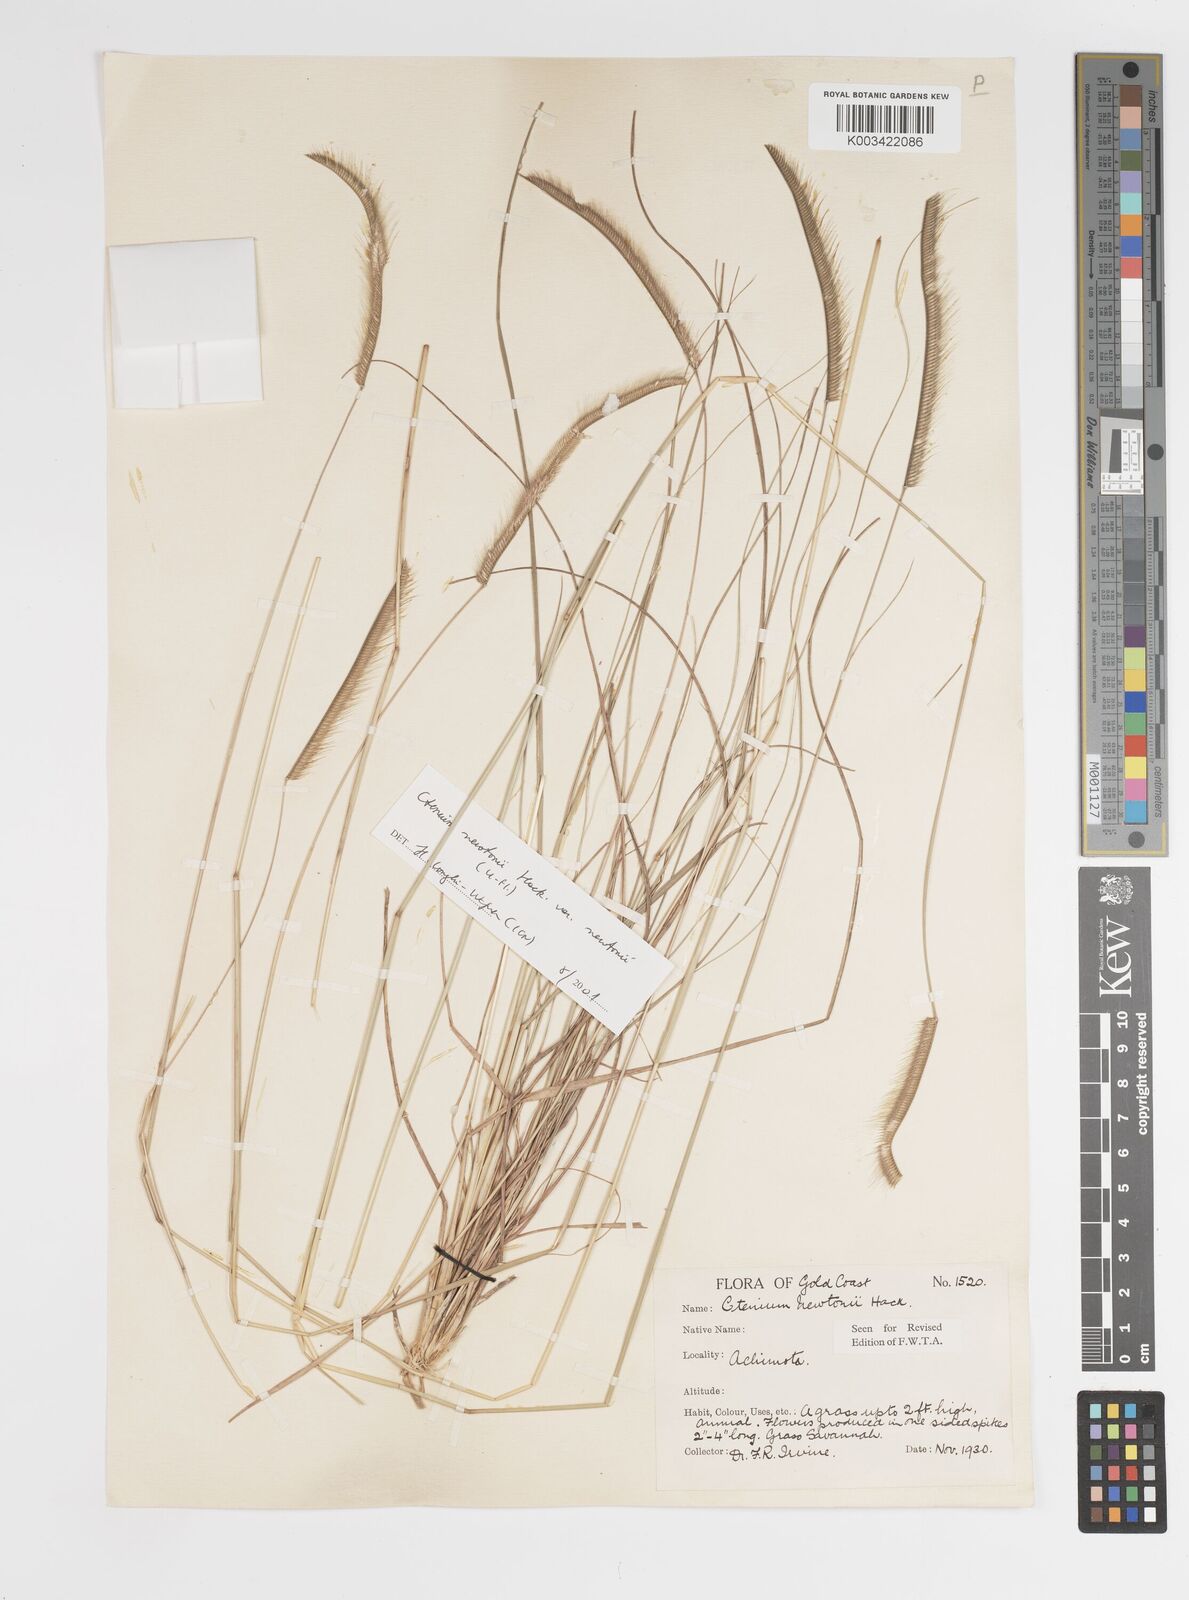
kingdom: Plantae
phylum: Tracheophyta
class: Liliopsida
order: Poales
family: Poaceae
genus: Ctenium
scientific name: Ctenium newtonii
